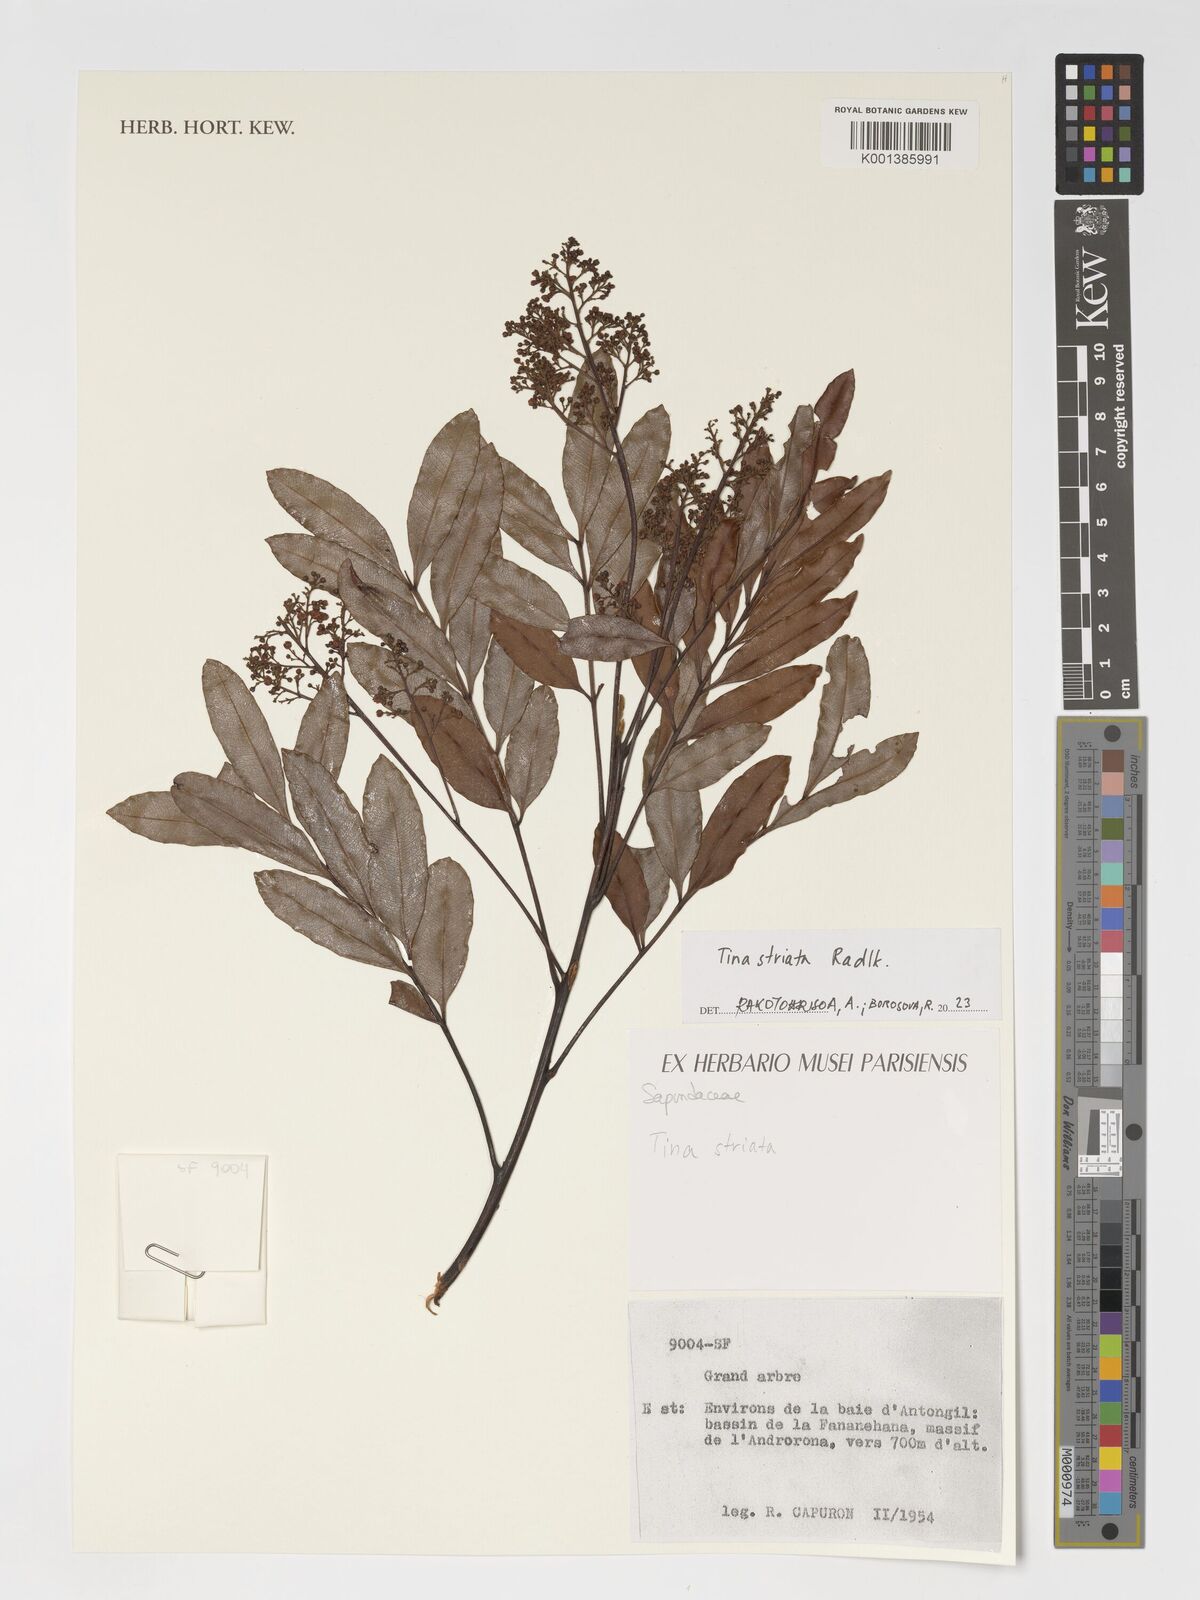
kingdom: Plantae
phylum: Tracheophyta
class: Magnoliopsida
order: Sapindales
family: Sapindaceae
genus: Tina
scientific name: Tina striata
